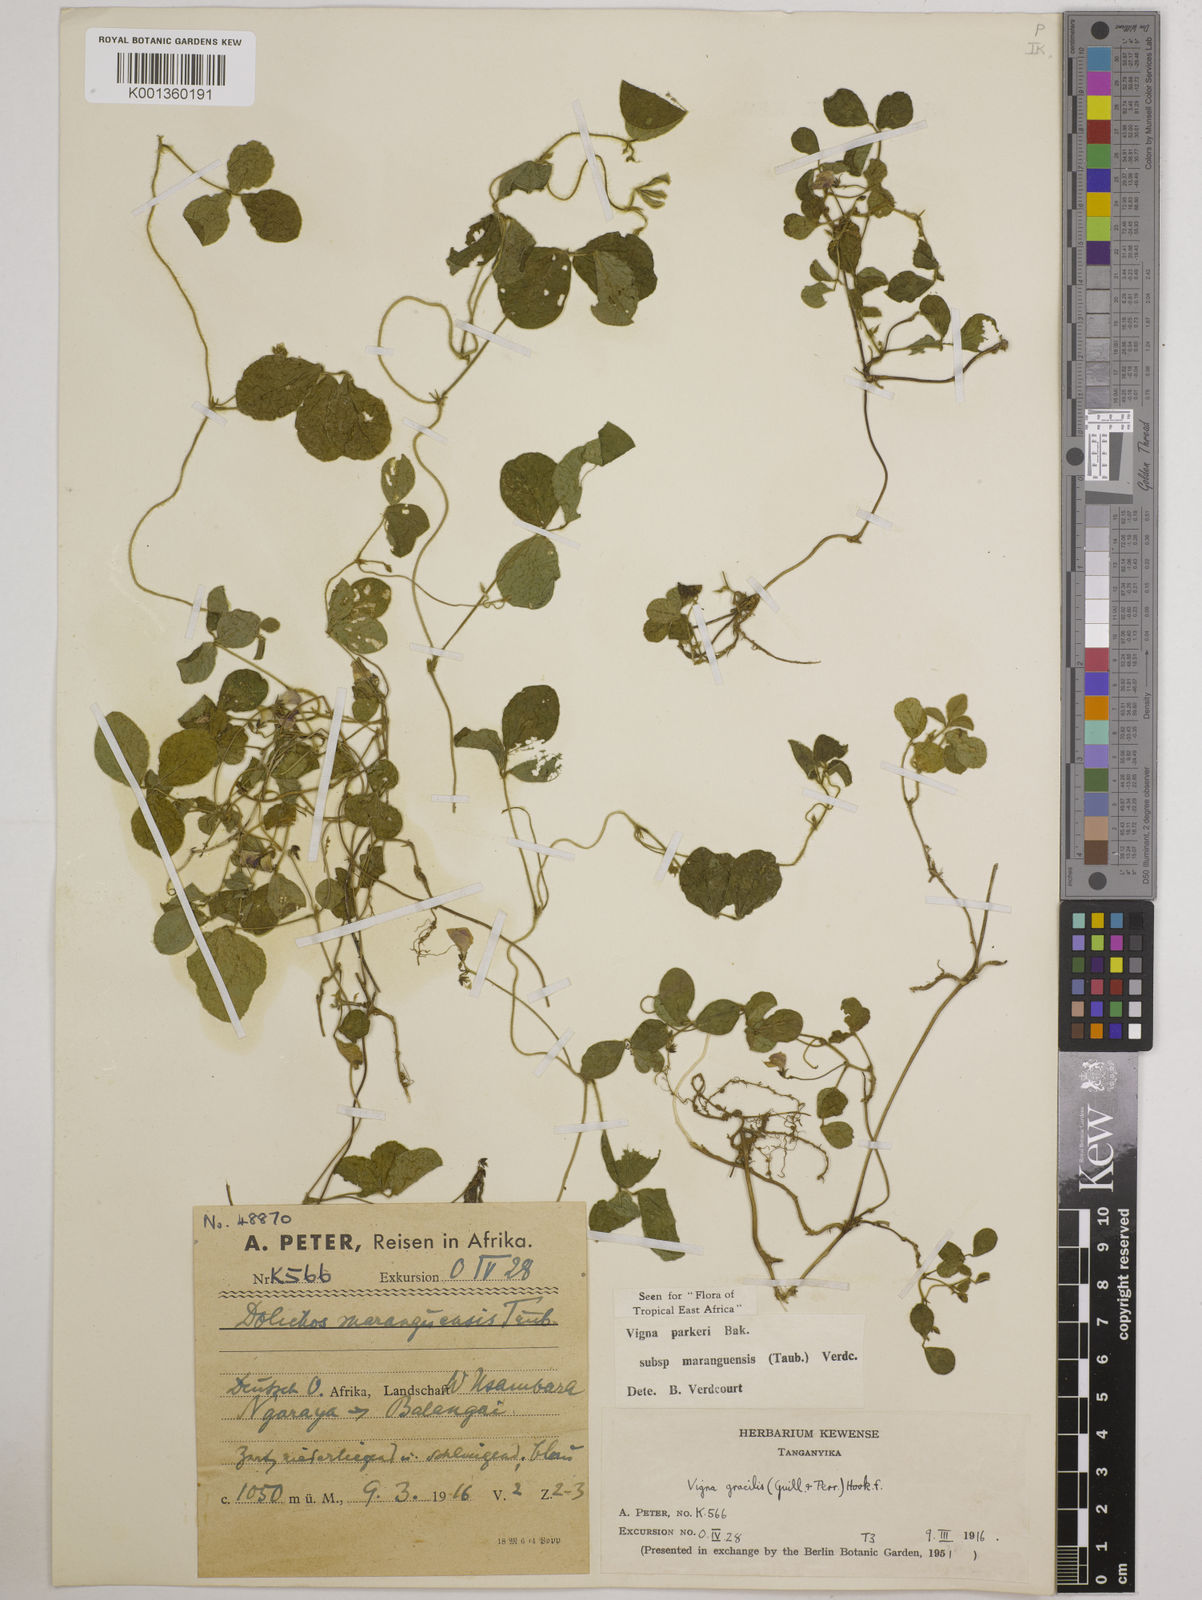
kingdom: Plantae
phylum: Tracheophyta
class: Magnoliopsida
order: Fabales
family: Fabaceae
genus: Vigna
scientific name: Vigna
